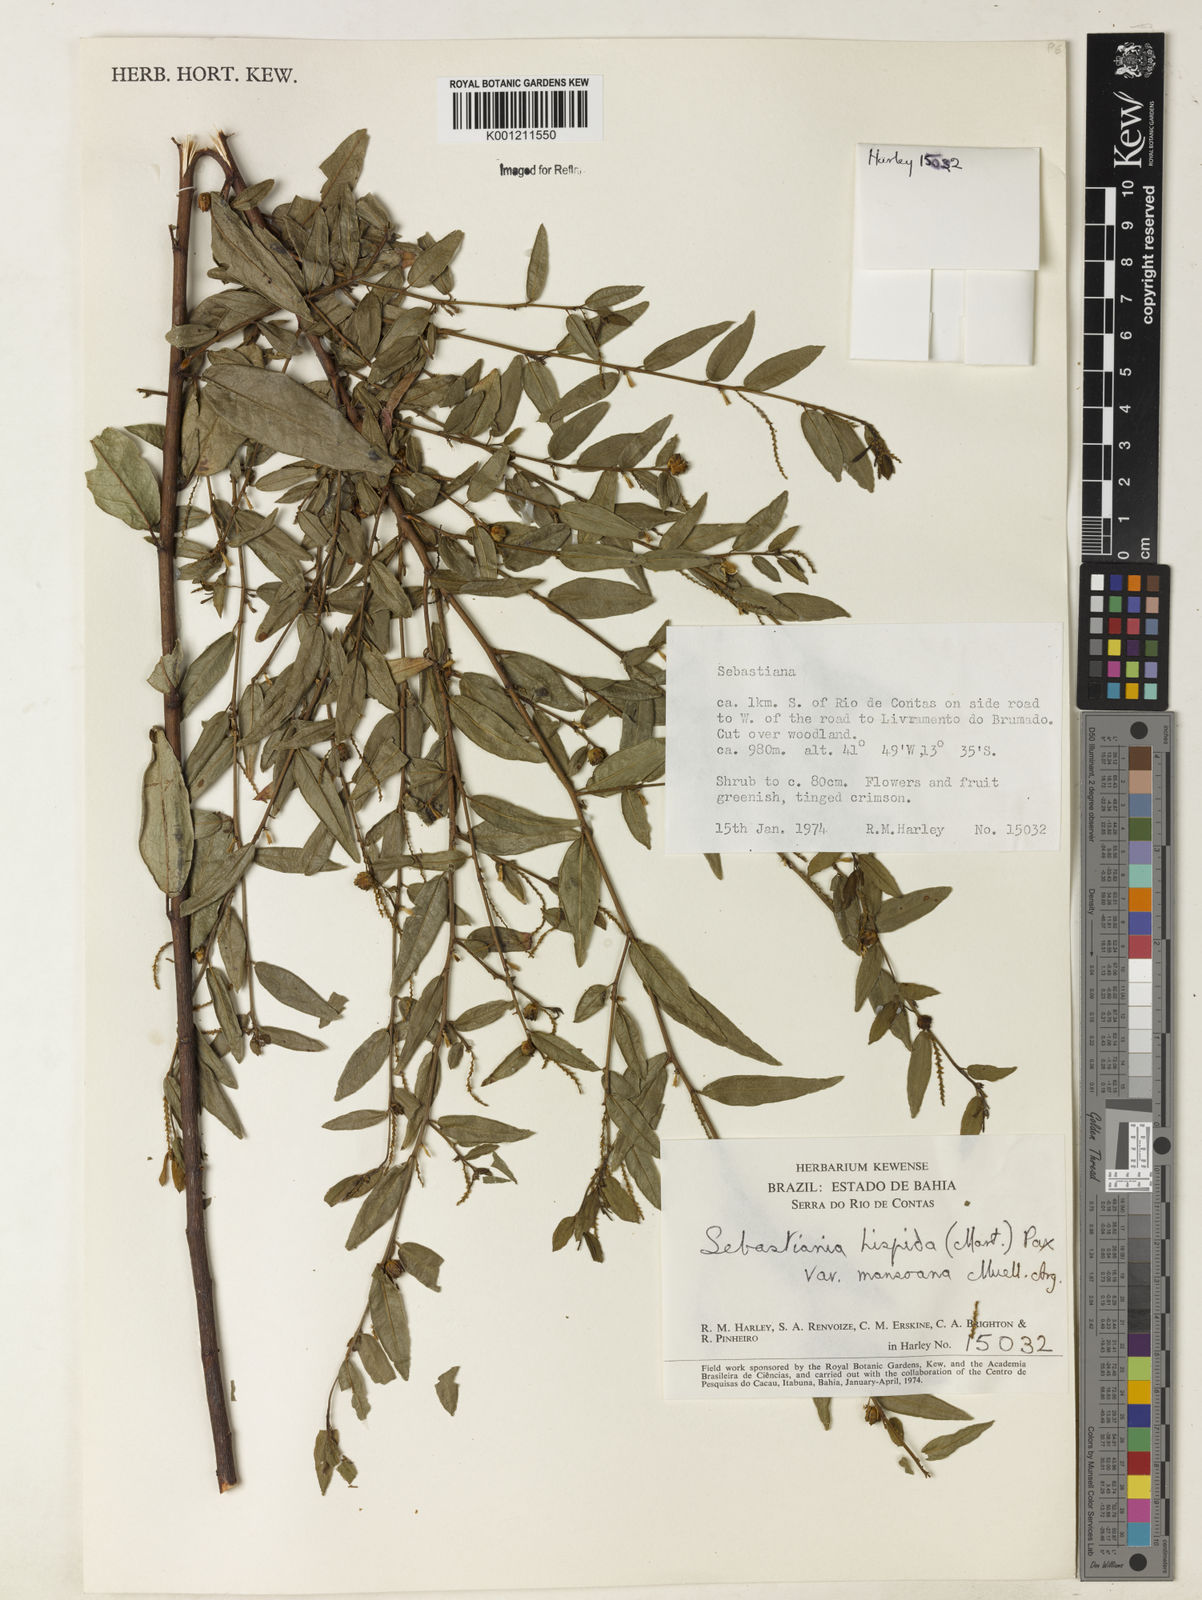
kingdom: Plantae
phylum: Tracheophyta
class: Magnoliopsida
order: Malpighiales
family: Euphorbiaceae
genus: Microstachys
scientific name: Microstachys hispida
